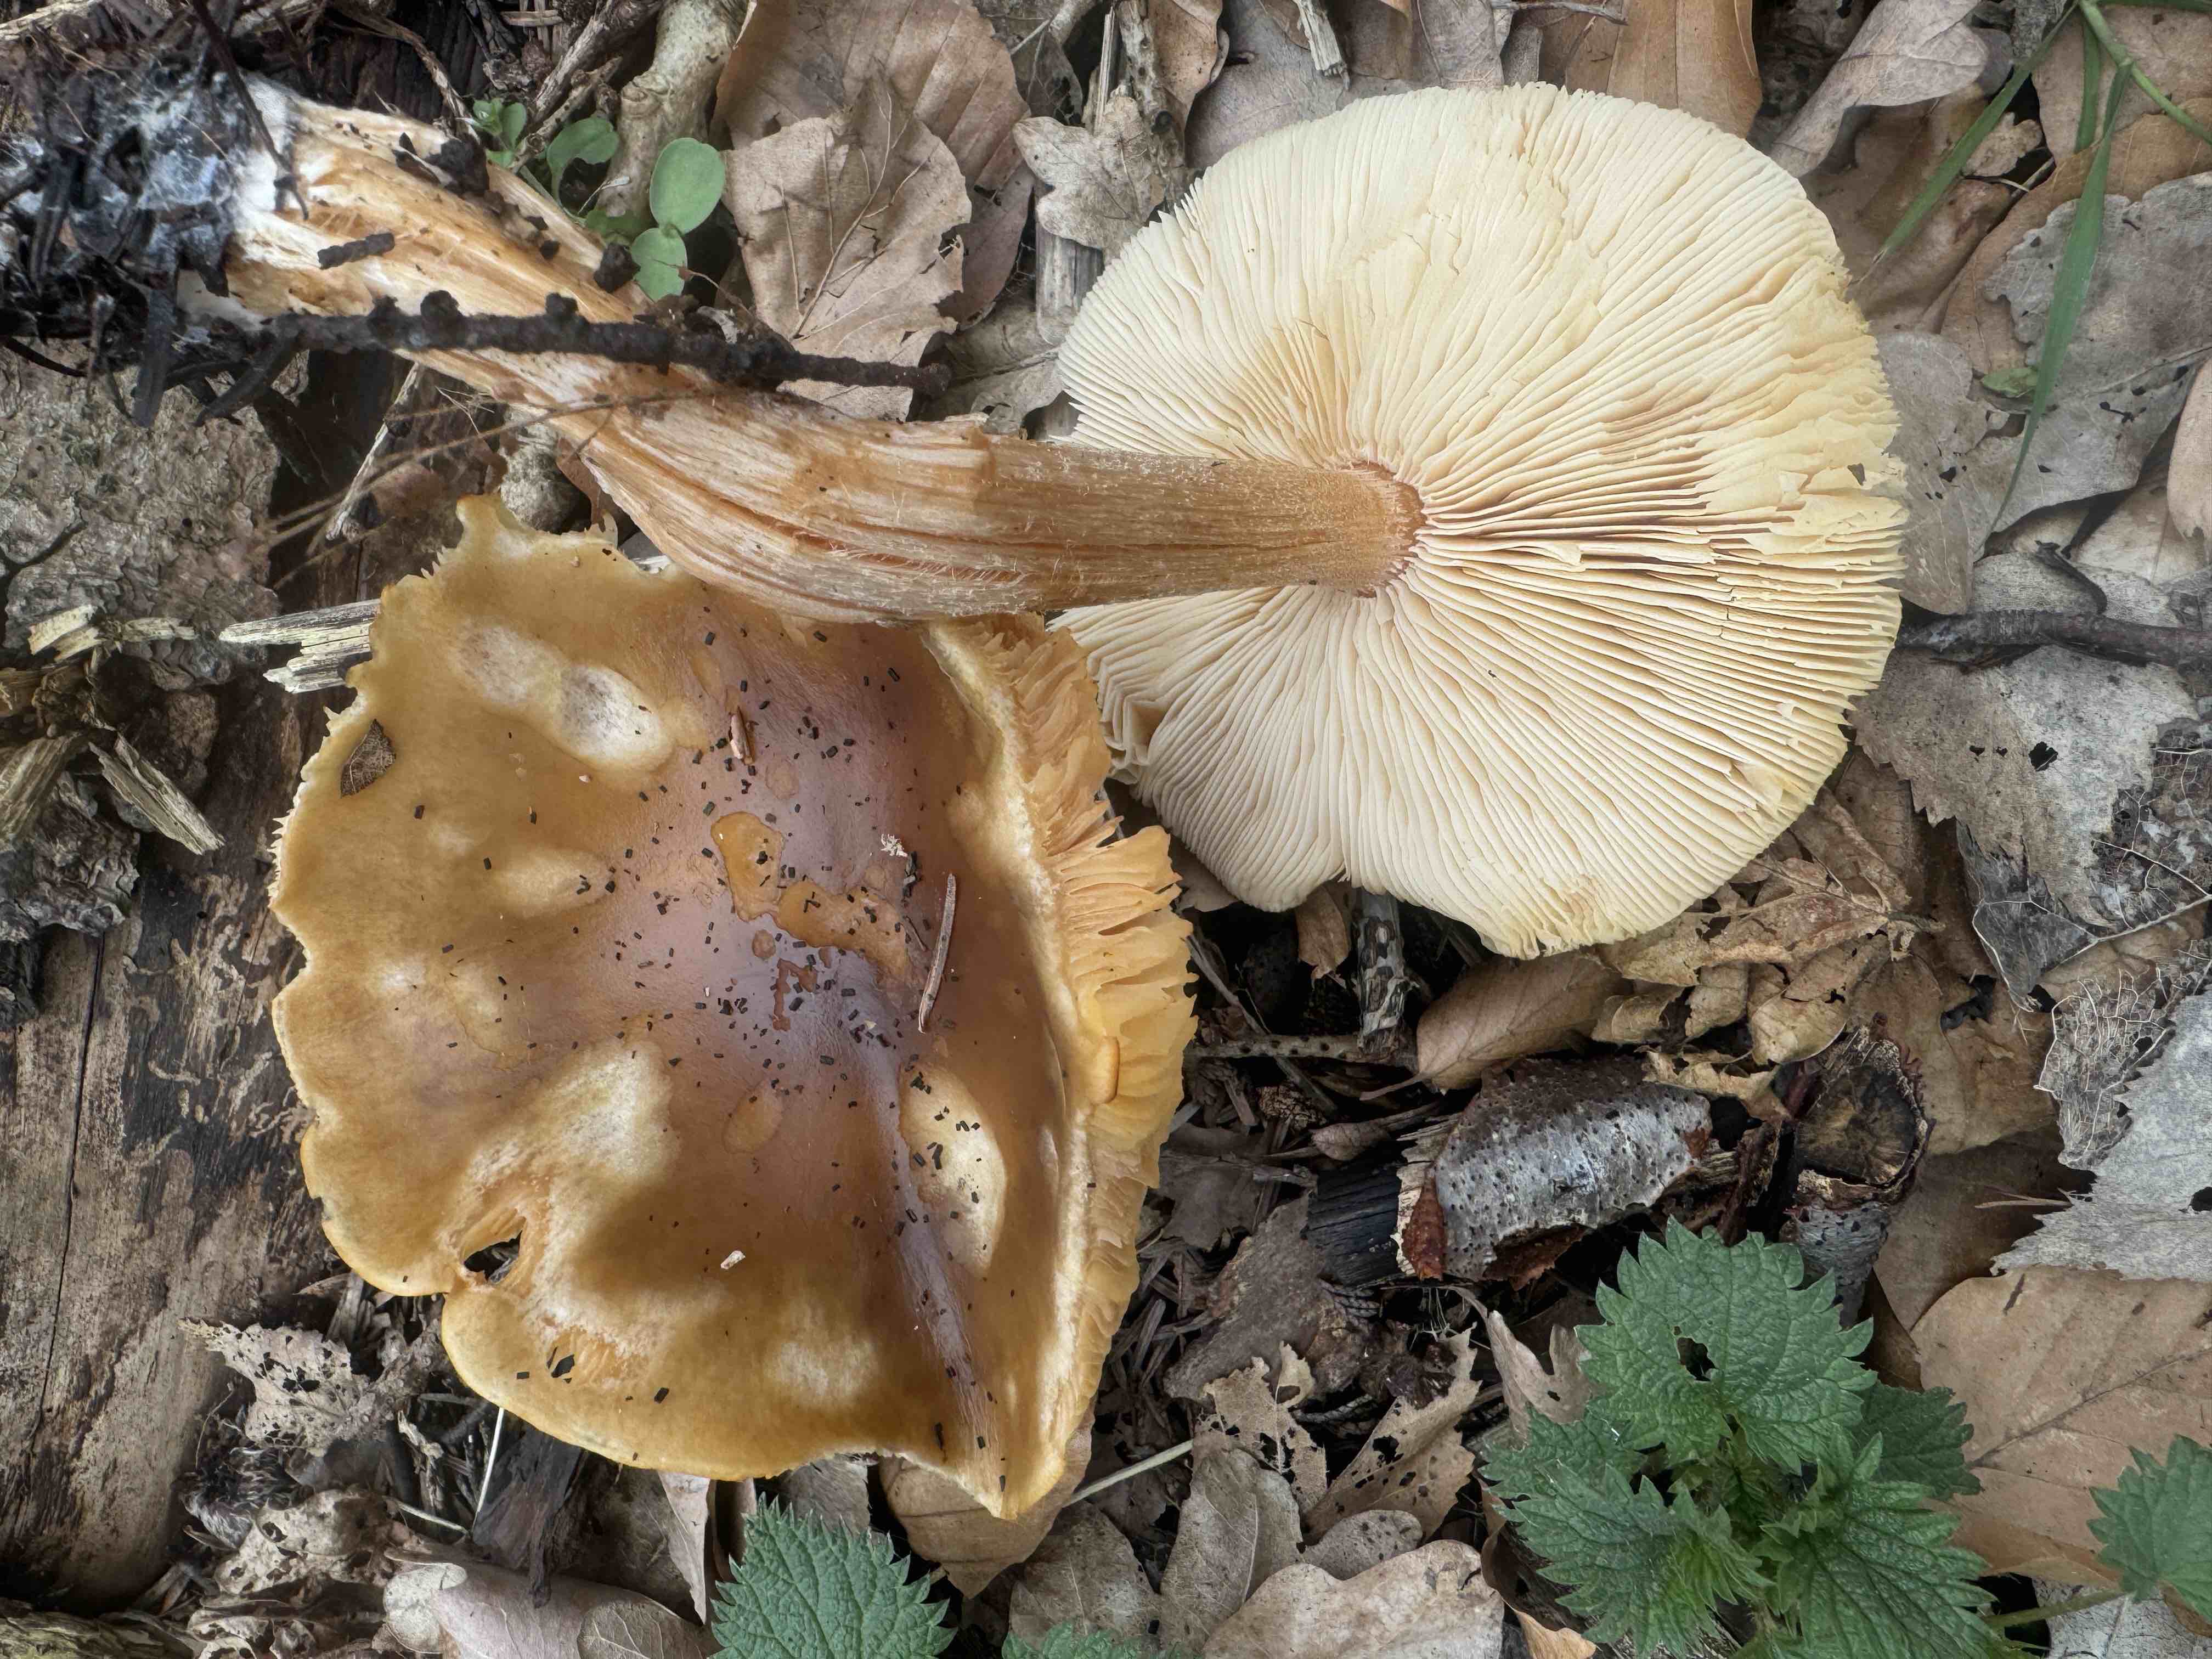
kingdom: Fungi
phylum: Basidiomycota
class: Agaricomycetes
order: Agaricales
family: Tricholomataceae
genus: Melanoleuca
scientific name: Melanoleuca cognata
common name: gyldengrå munkehat
